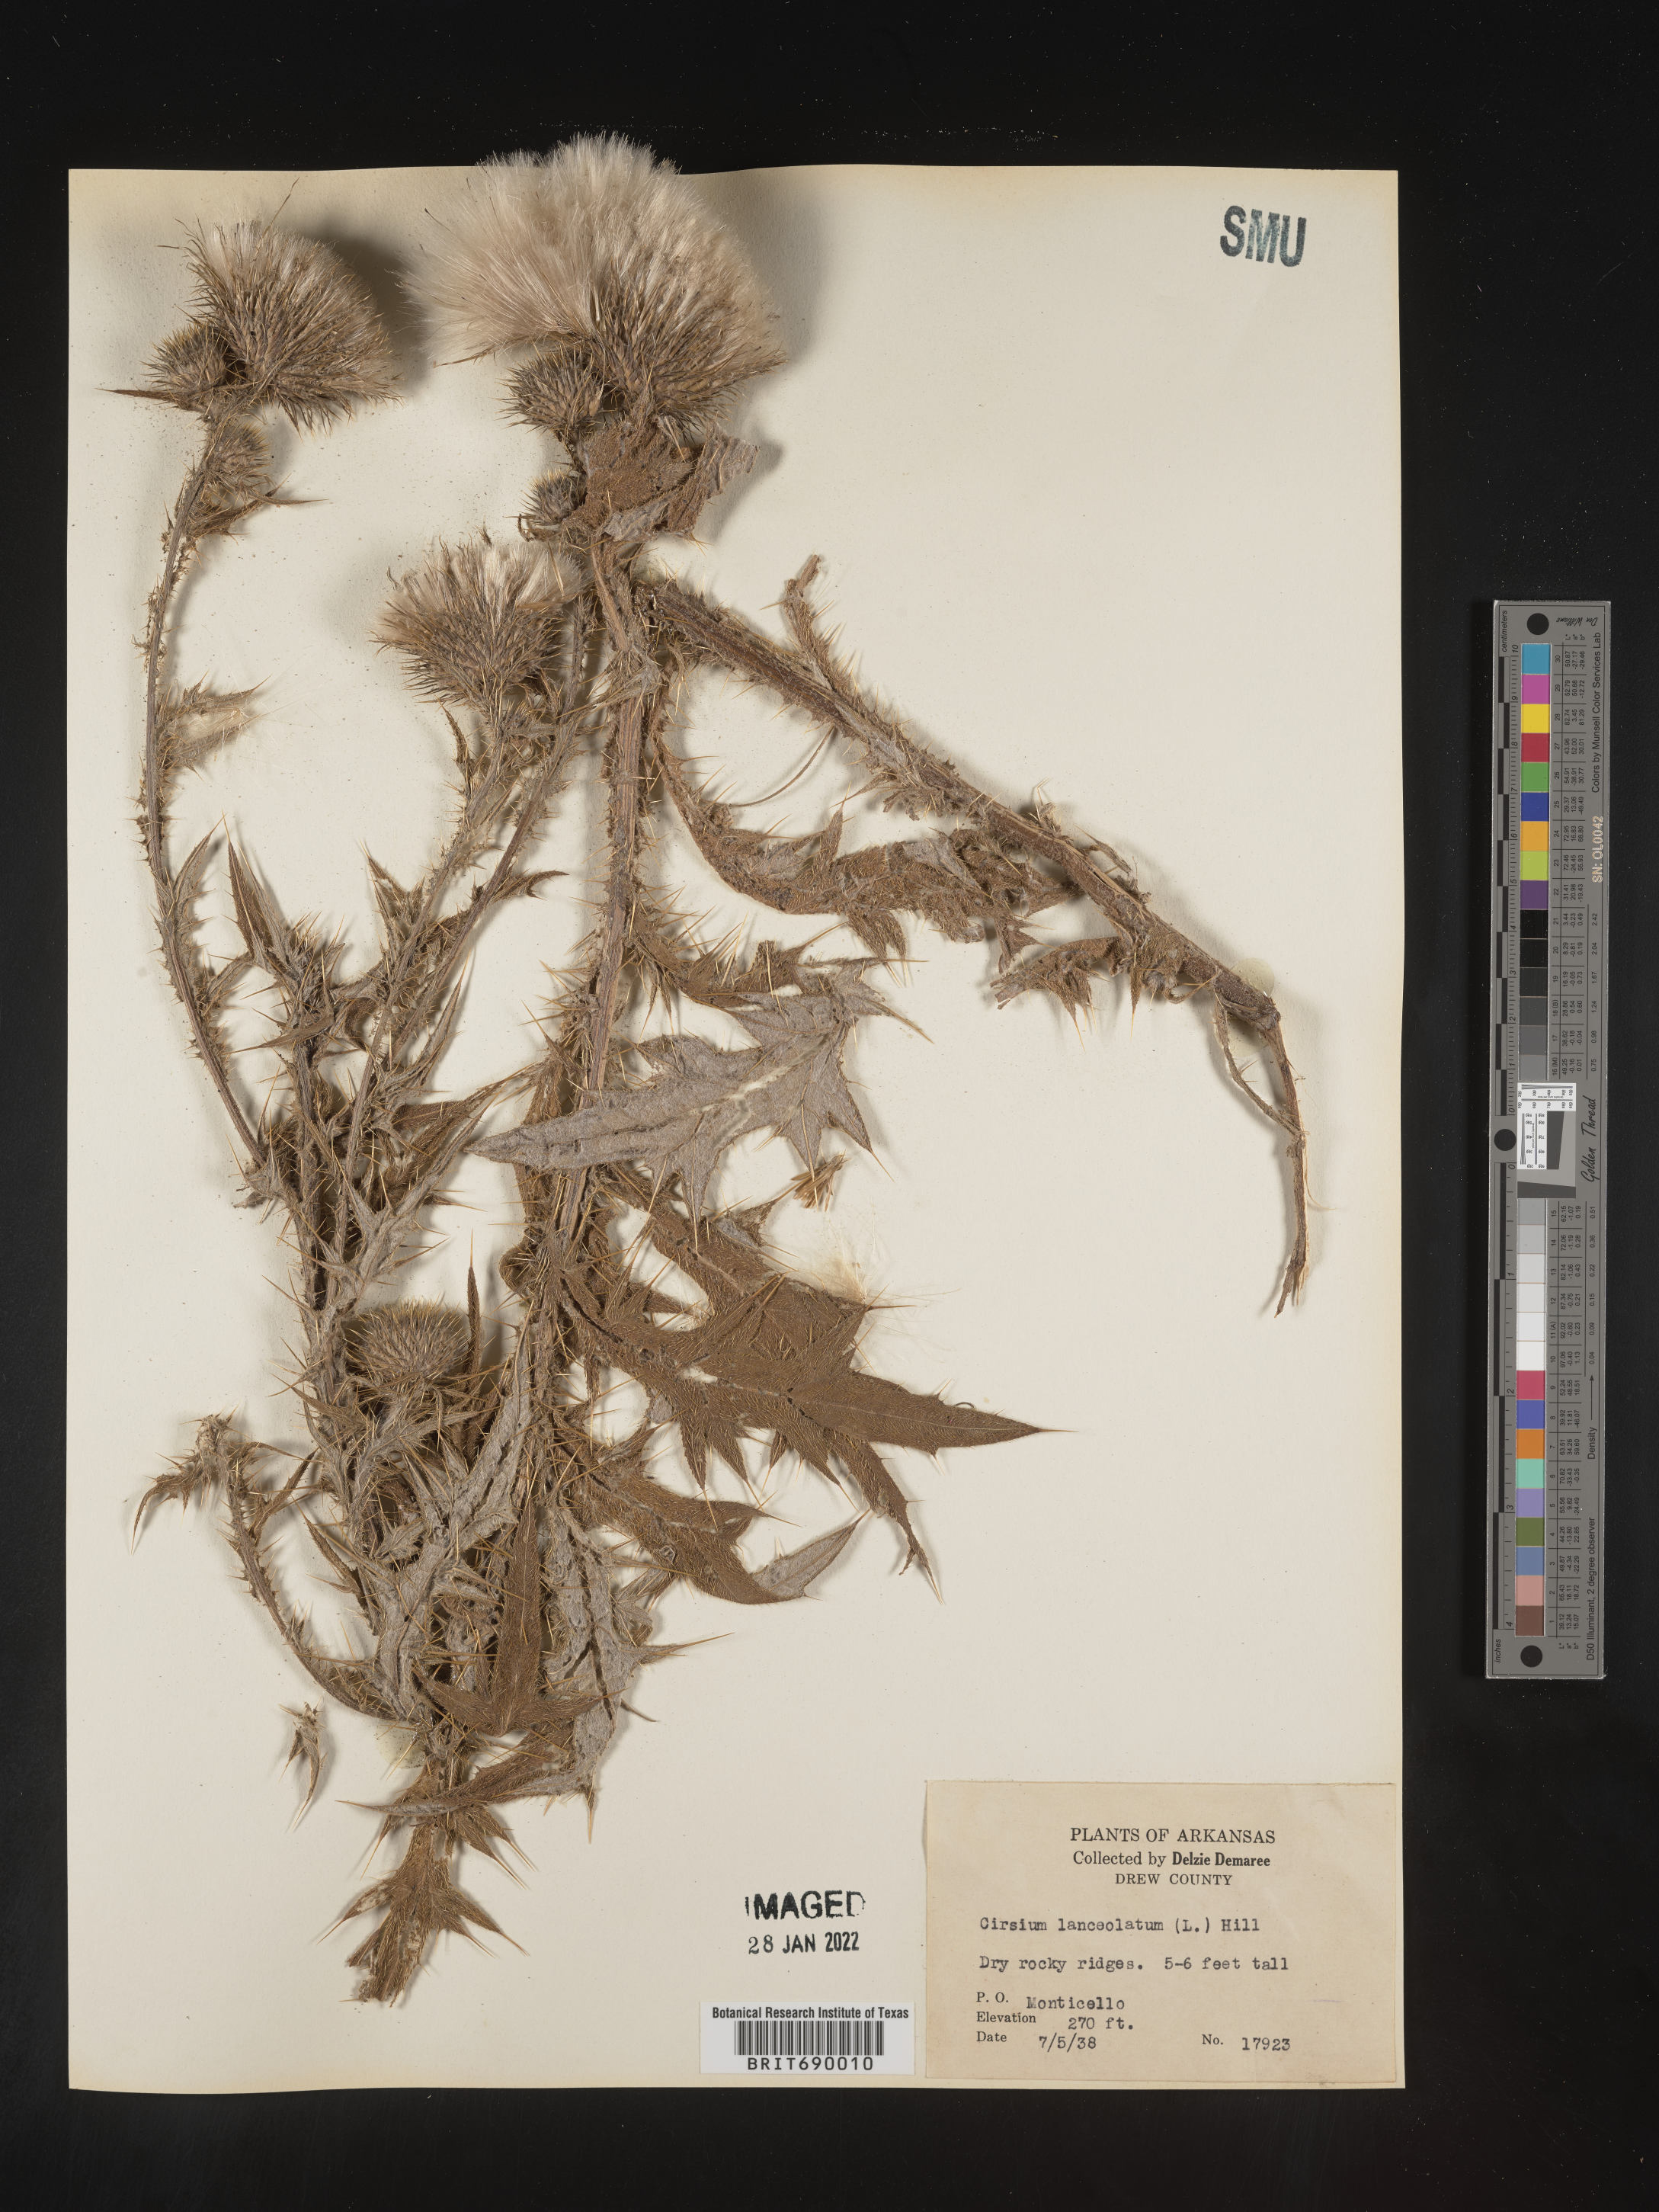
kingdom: Plantae
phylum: Tracheophyta
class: Magnoliopsida
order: Asterales
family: Asteraceae
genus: Cirsium
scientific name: Cirsium vulgare
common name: Bull thistle
